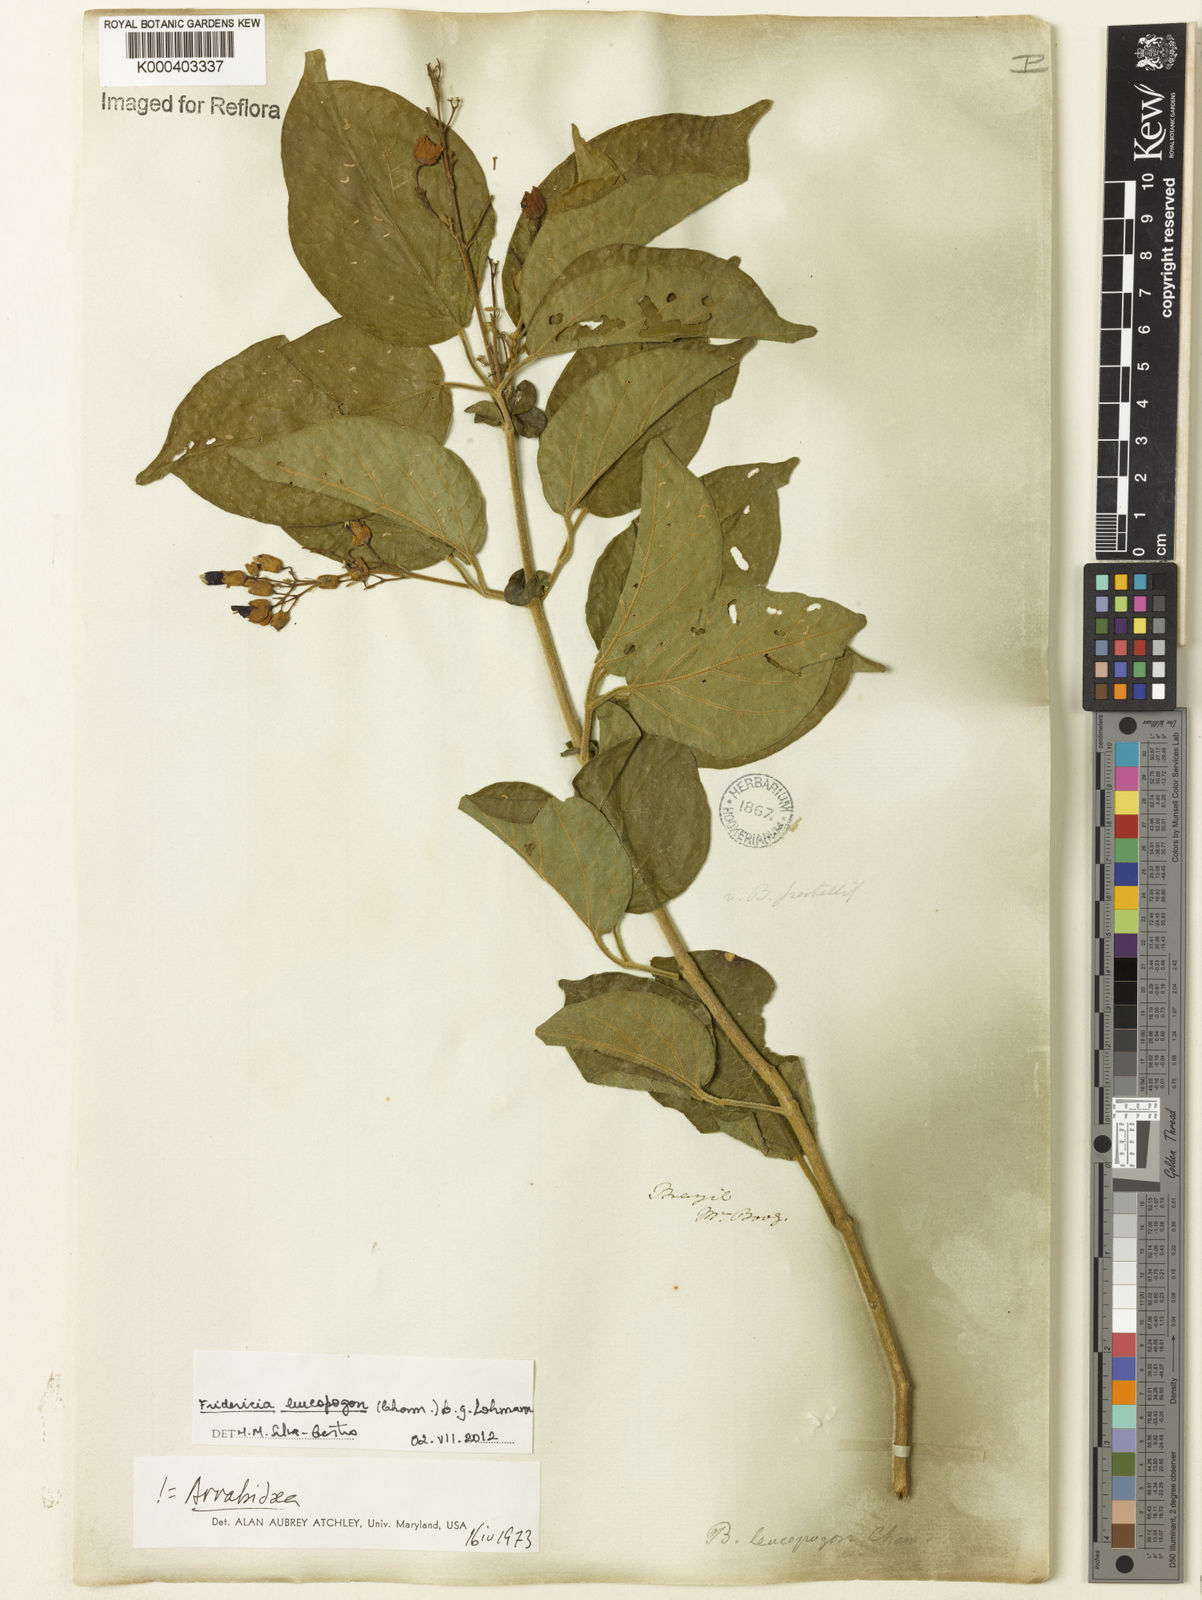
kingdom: Plantae
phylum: Tracheophyta
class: Magnoliopsida
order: Lamiales
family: Bignoniaceae
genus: Fridericia
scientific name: Fridericia leucopogon
